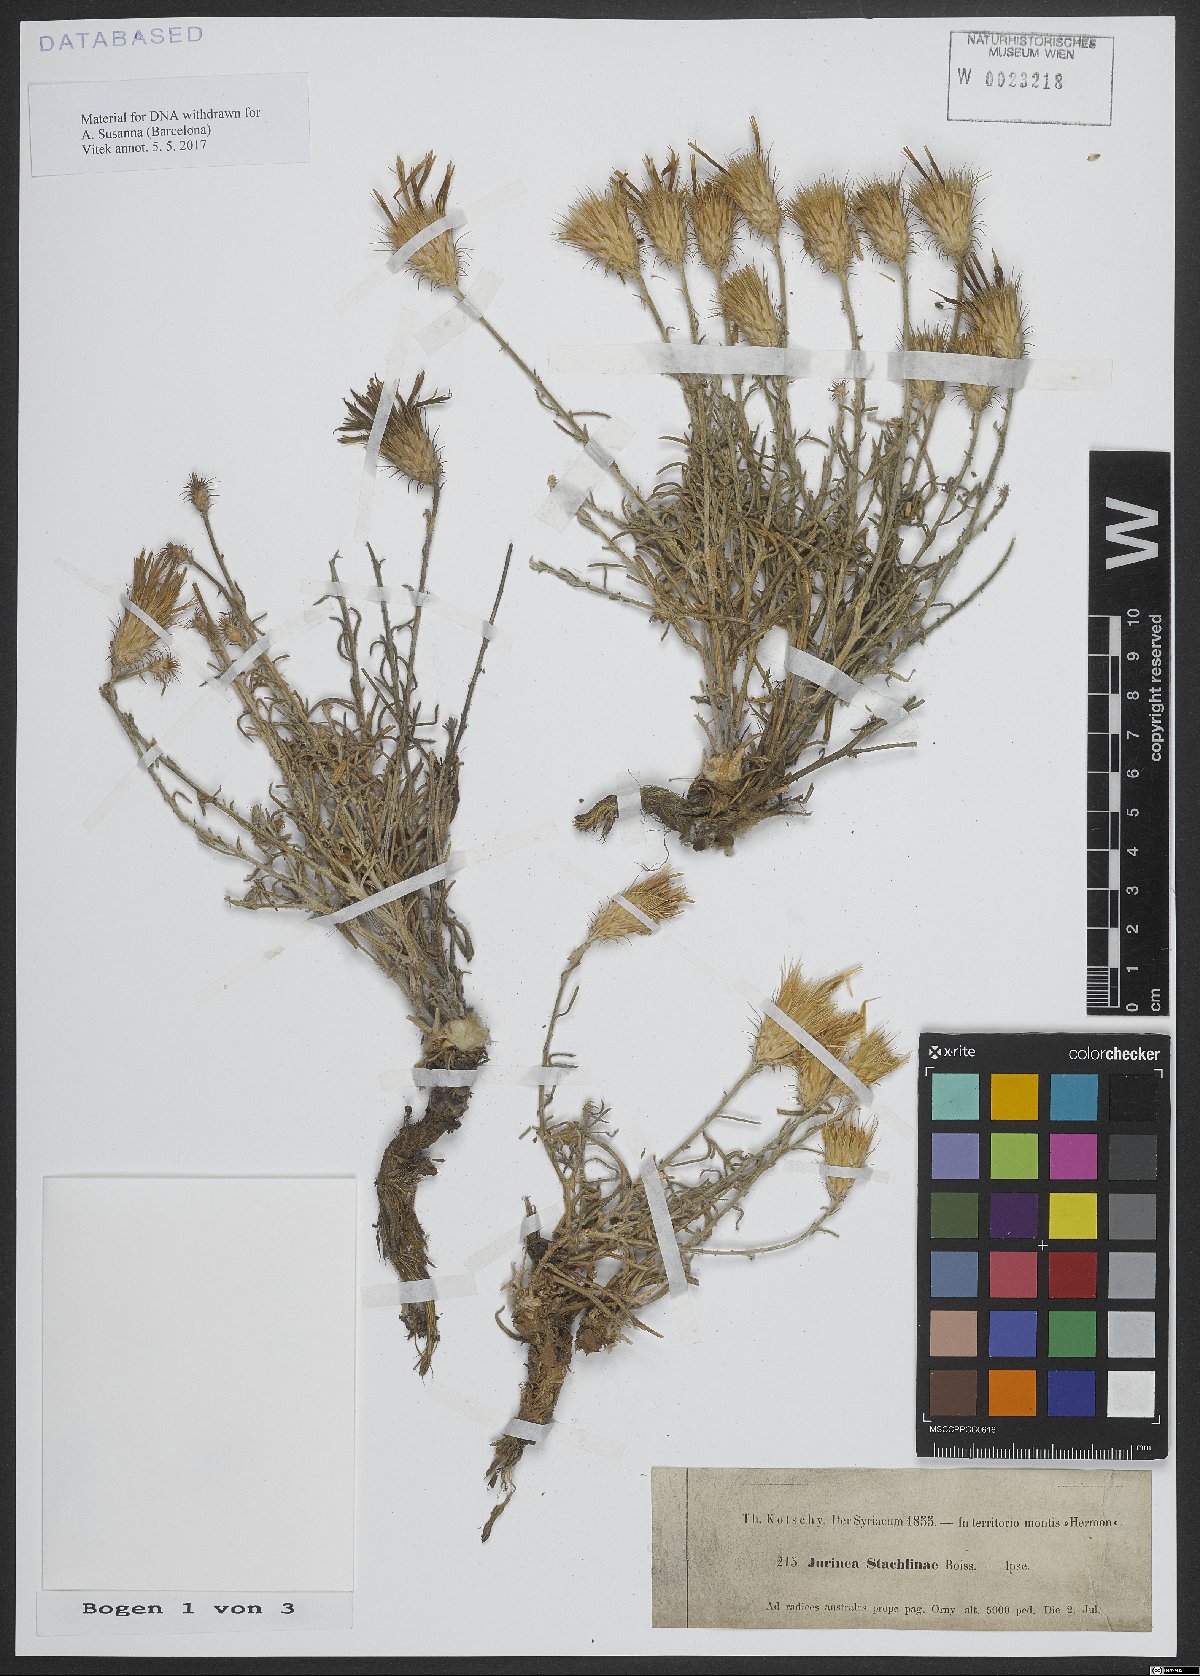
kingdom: Plantae
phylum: Tracheophyta
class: Magnoliopsida
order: Asterales
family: Asteraceae
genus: Jurinea
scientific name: Jurinea staehelinae
